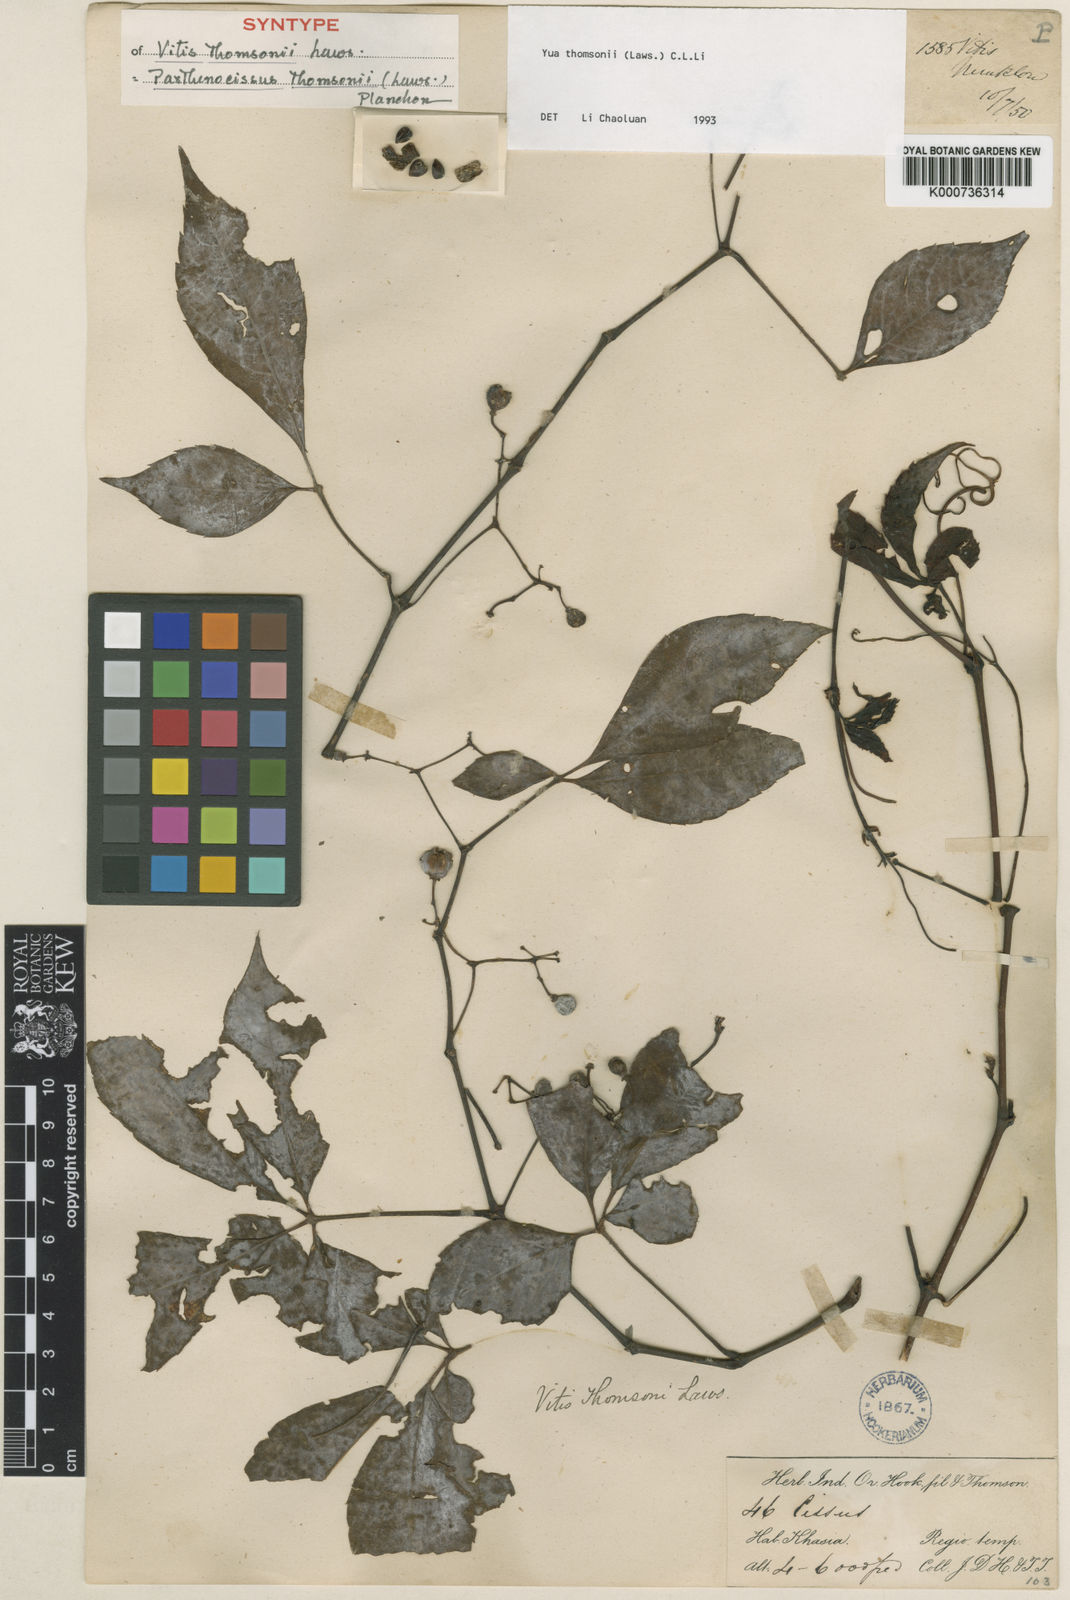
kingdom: Plantae
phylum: Tracheophyta
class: Magnoliopsida
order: Vitales
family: Vitaceae
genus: Yua
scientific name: Yua thomsonii
